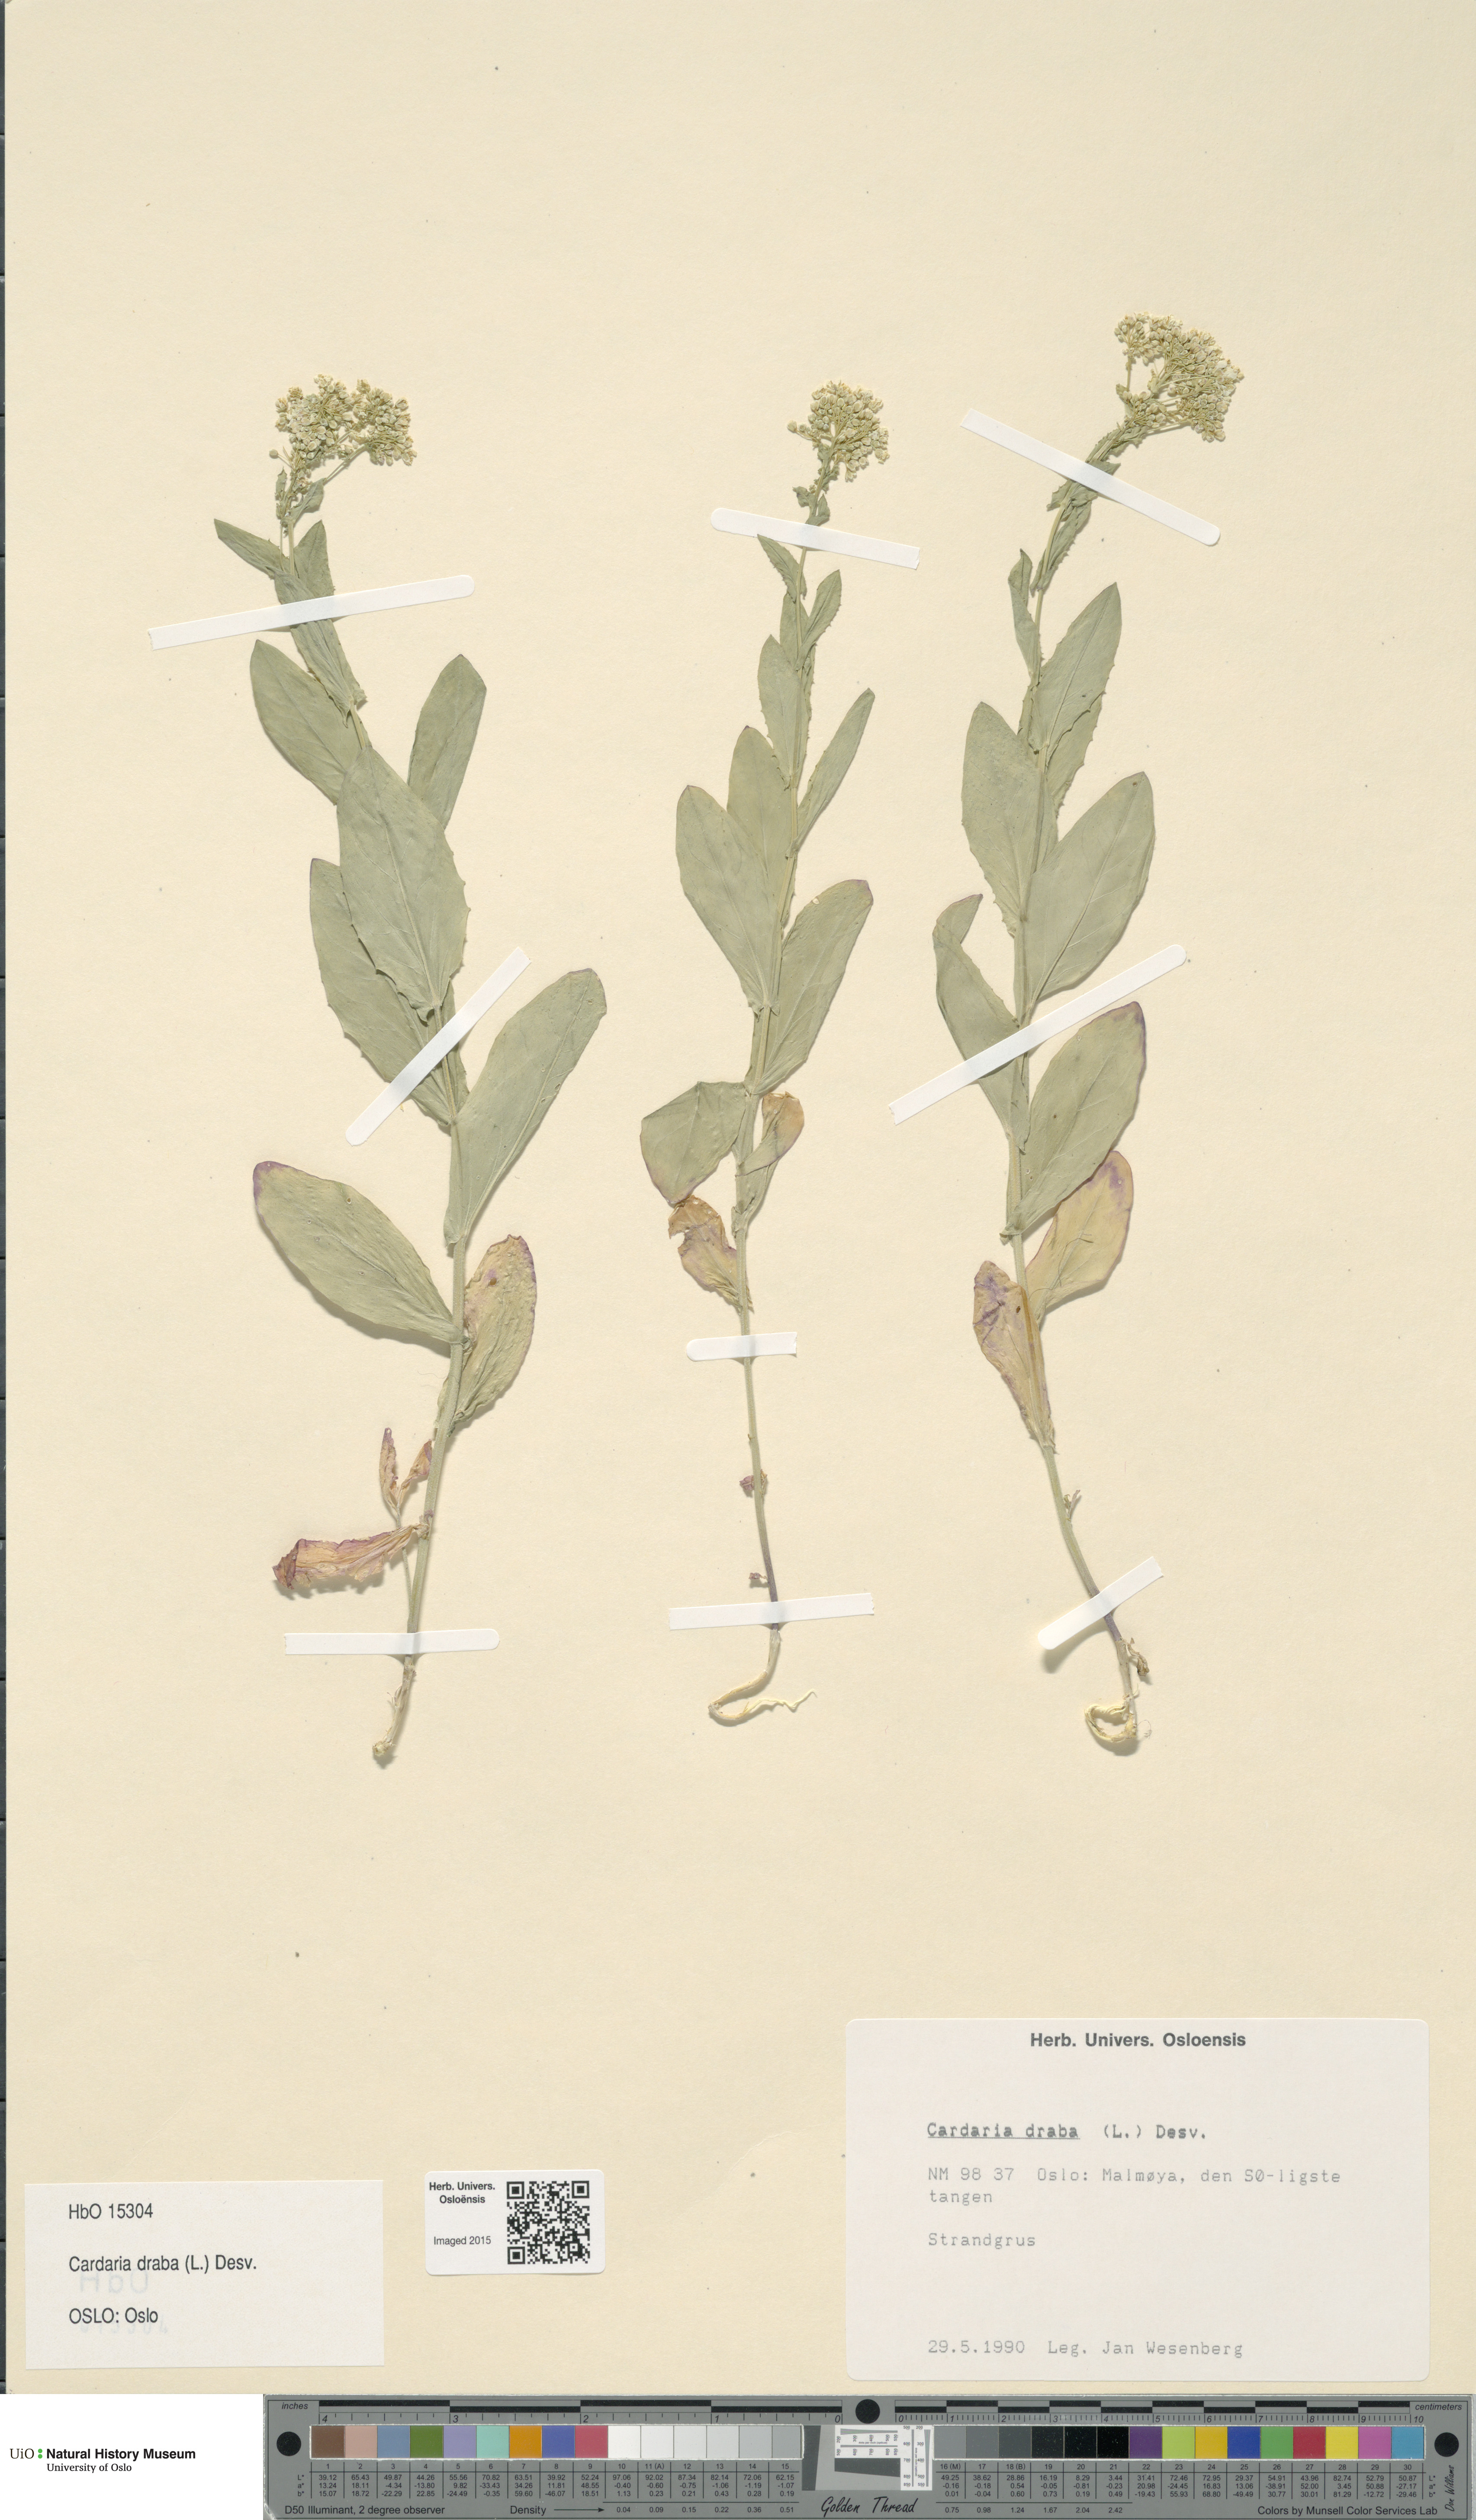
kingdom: Plantae
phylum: Tracheophyta
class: Magnoliopsida
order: Brassicales
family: Brassicaceae
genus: Lepidium
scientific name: Lepidium draba
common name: Hoary cress
